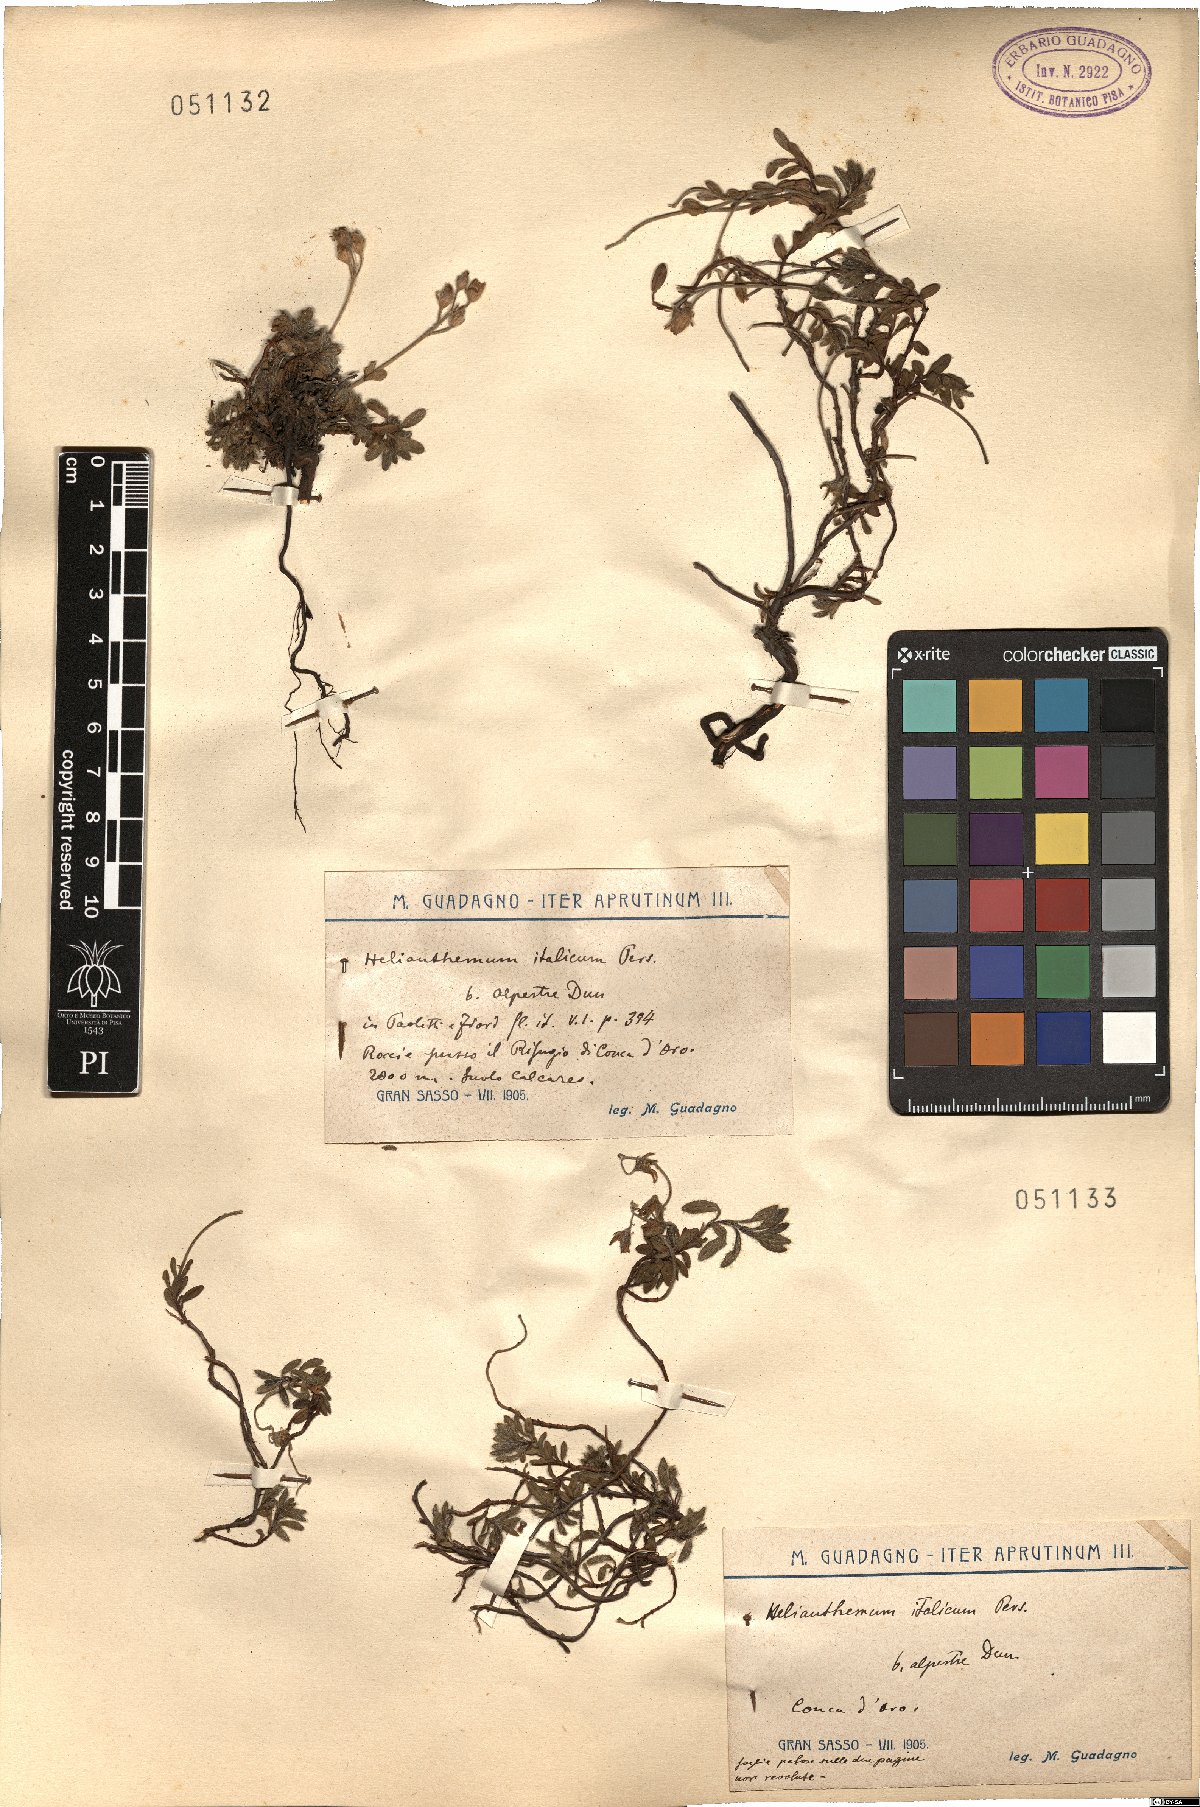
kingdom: Plantae
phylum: Tracheophyta
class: Magnoliopsida
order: Malvales
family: Cistaceae
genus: Helianthemum
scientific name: Helianthemum alpestre
